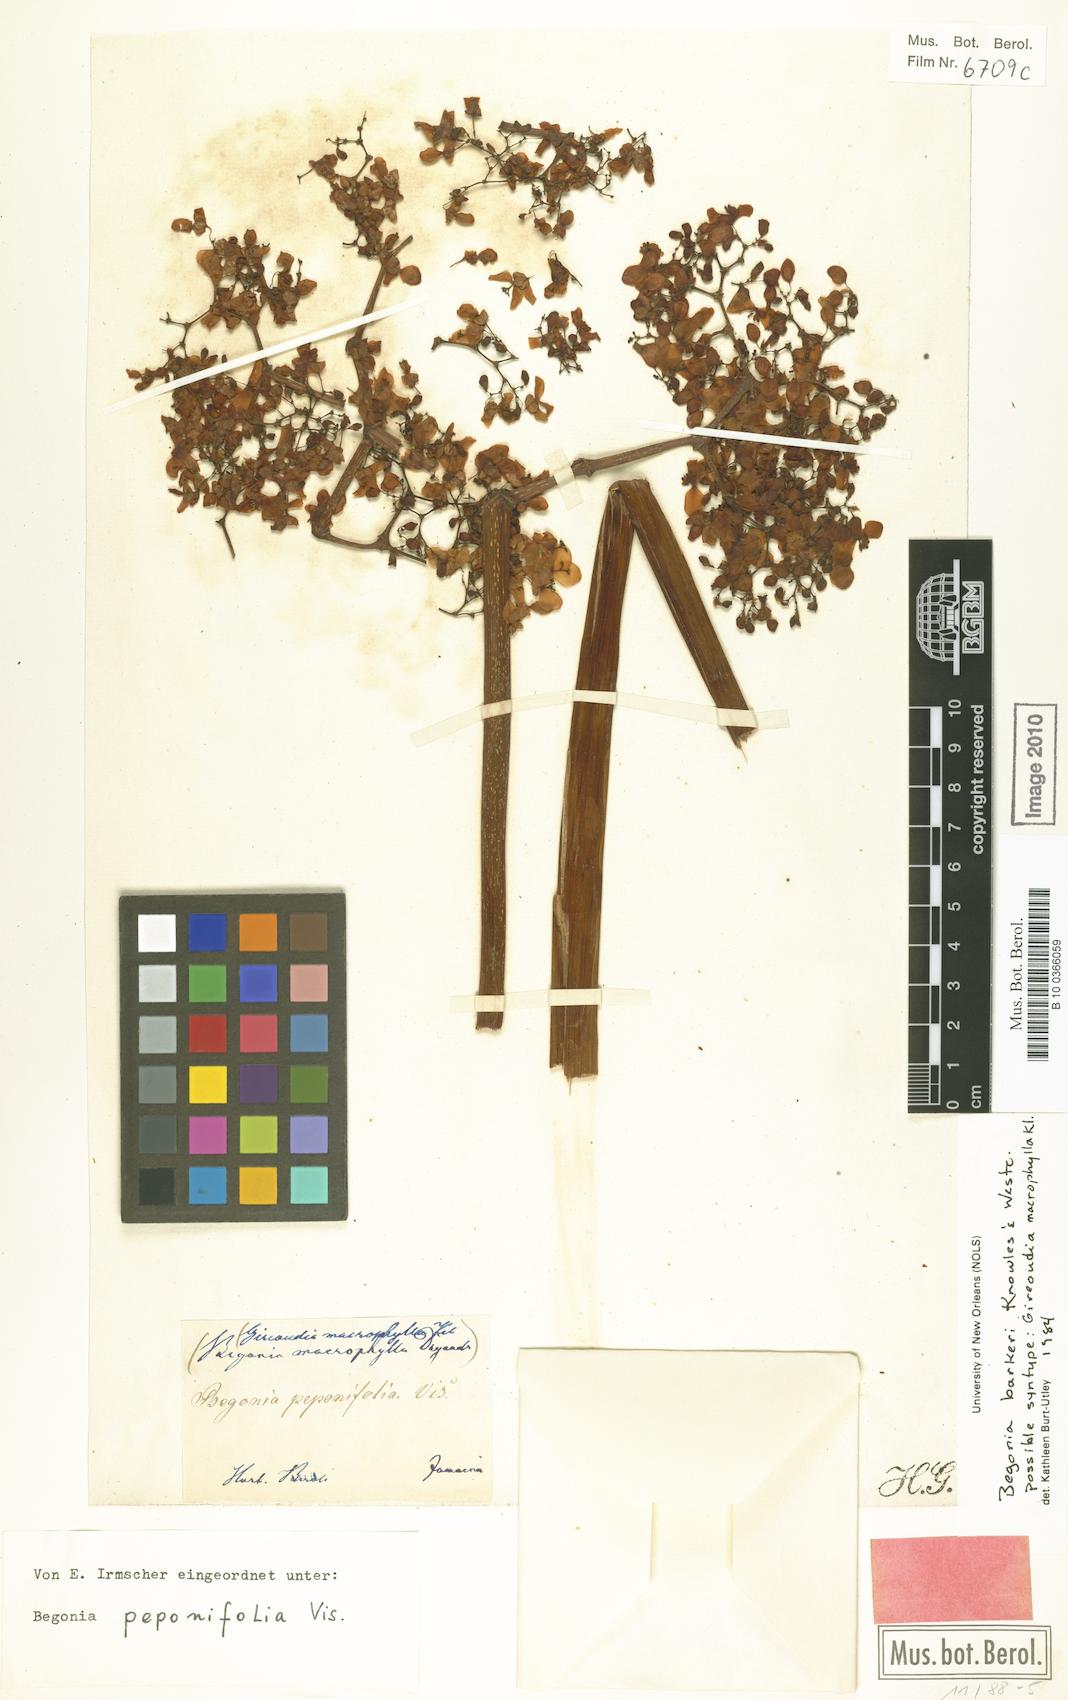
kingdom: Plantae
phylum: Tracheophyta
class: Magnoliopsida
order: Cucurbitales
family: Begoniaceae
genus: Begonia
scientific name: Begonia barkeri
